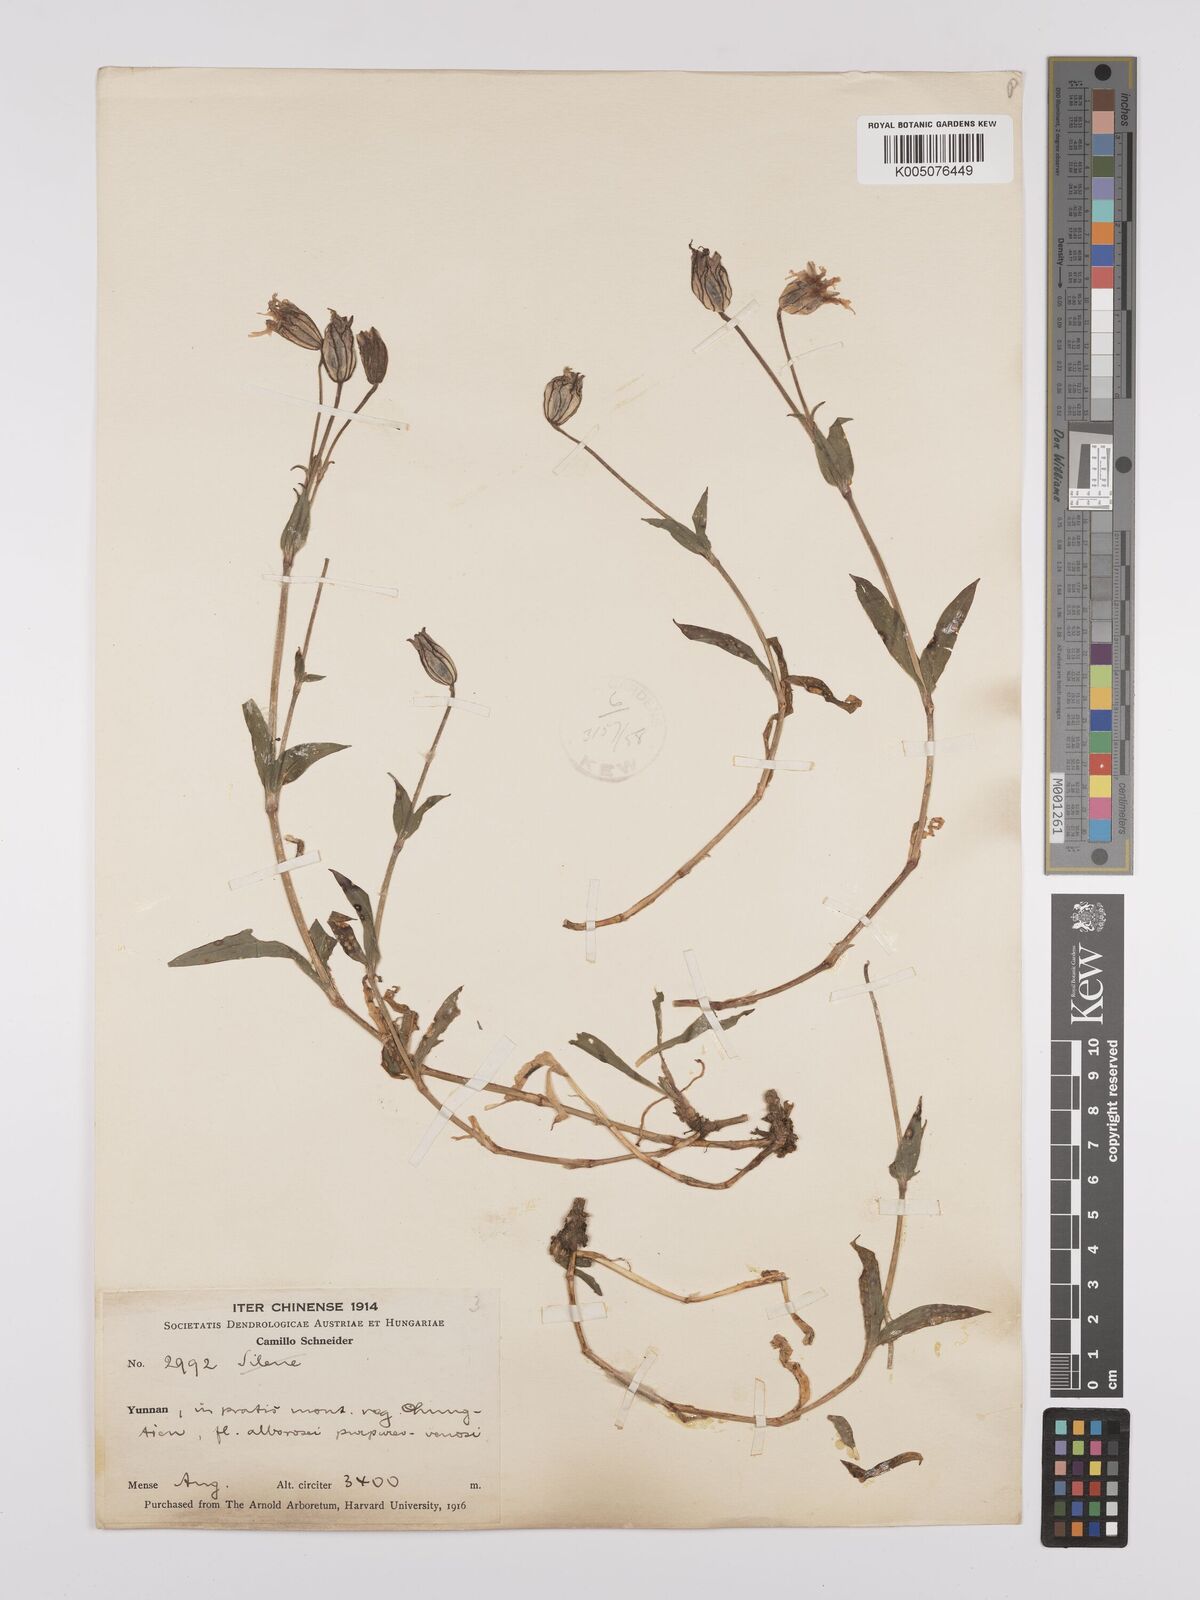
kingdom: Plantae
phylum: Tracheophyta
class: Magnoliopsida
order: Caryophyllales
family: Caryophyllaceae
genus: Silene
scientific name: Silene
